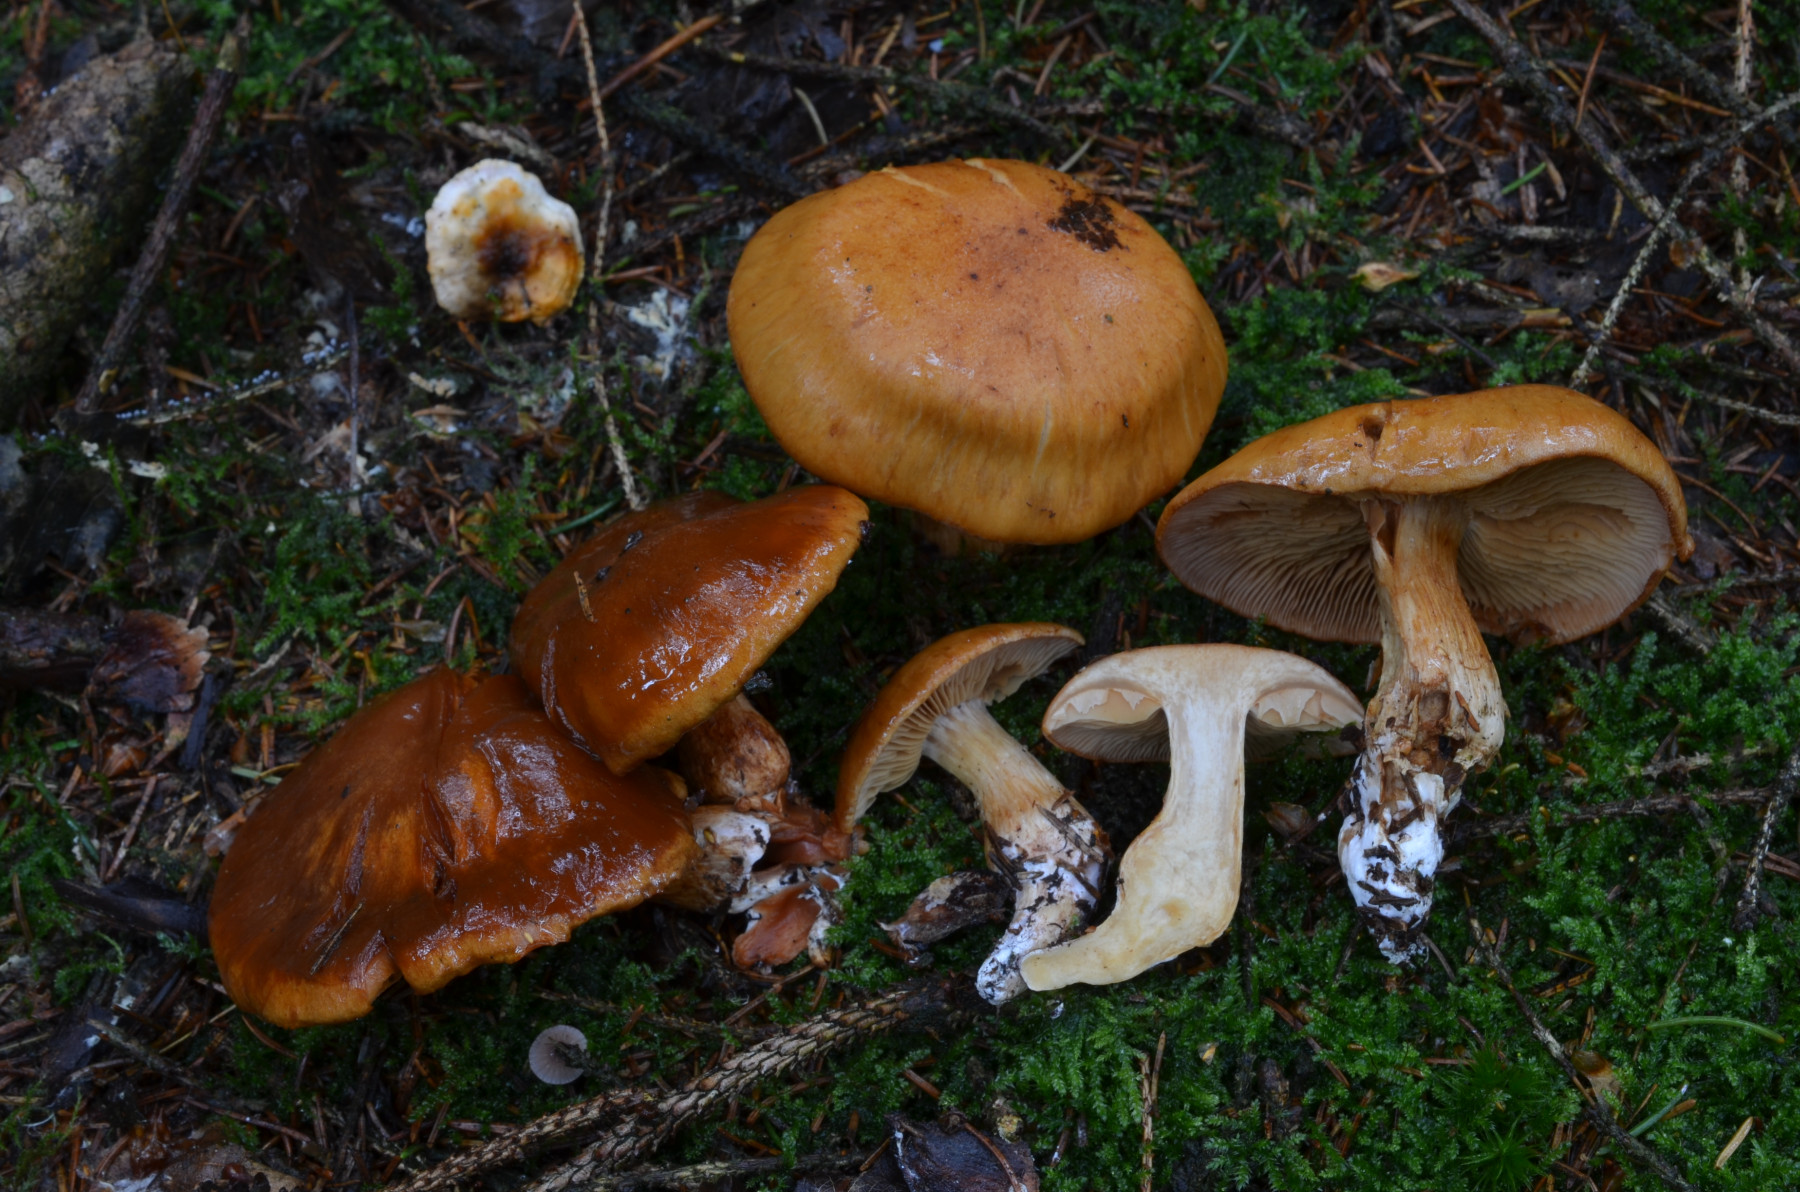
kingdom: Fungi
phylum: Basidiomycota
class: Agaricomycetes
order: Agaricales
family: Cortinariaceae
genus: Thaxterogaster
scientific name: Thaxterogaster vespertinus
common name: blegfodet slørhat
